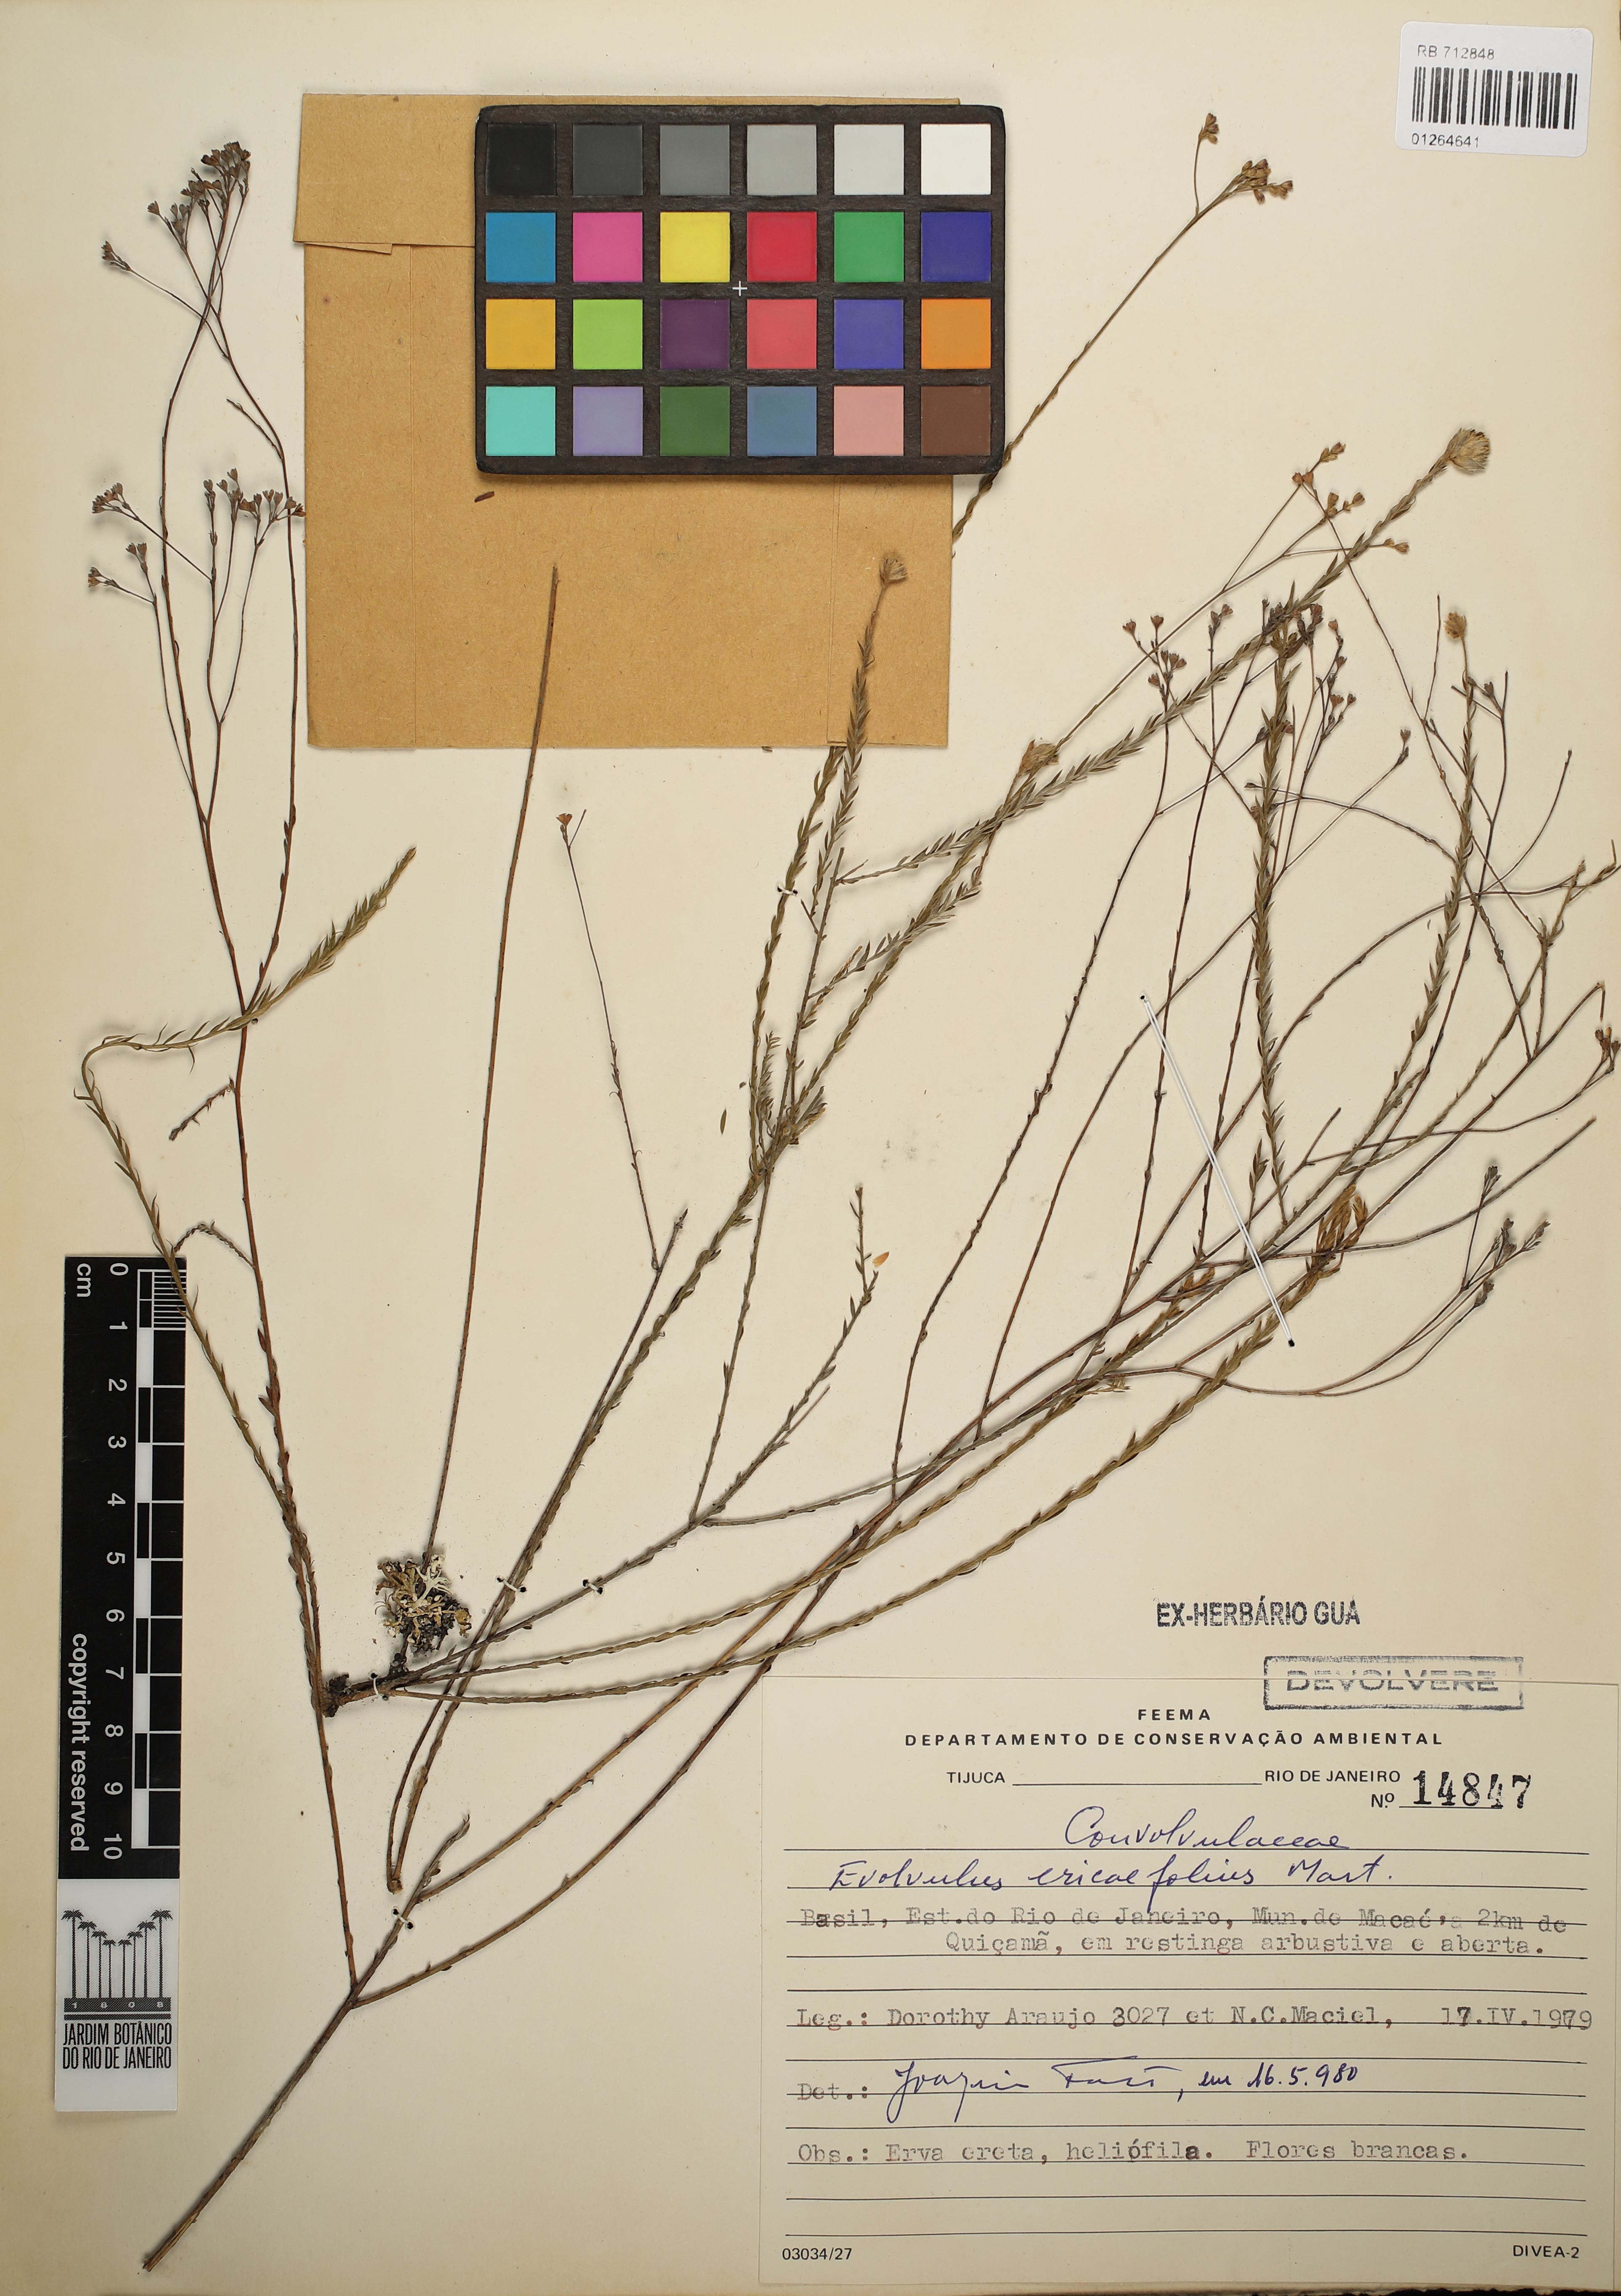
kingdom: Plantae
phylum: Tracheophyta
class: Magnoliopsida
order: Solanales
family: Convolvulaceae
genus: Evolvulus
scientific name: Evolvulus ericifolius
